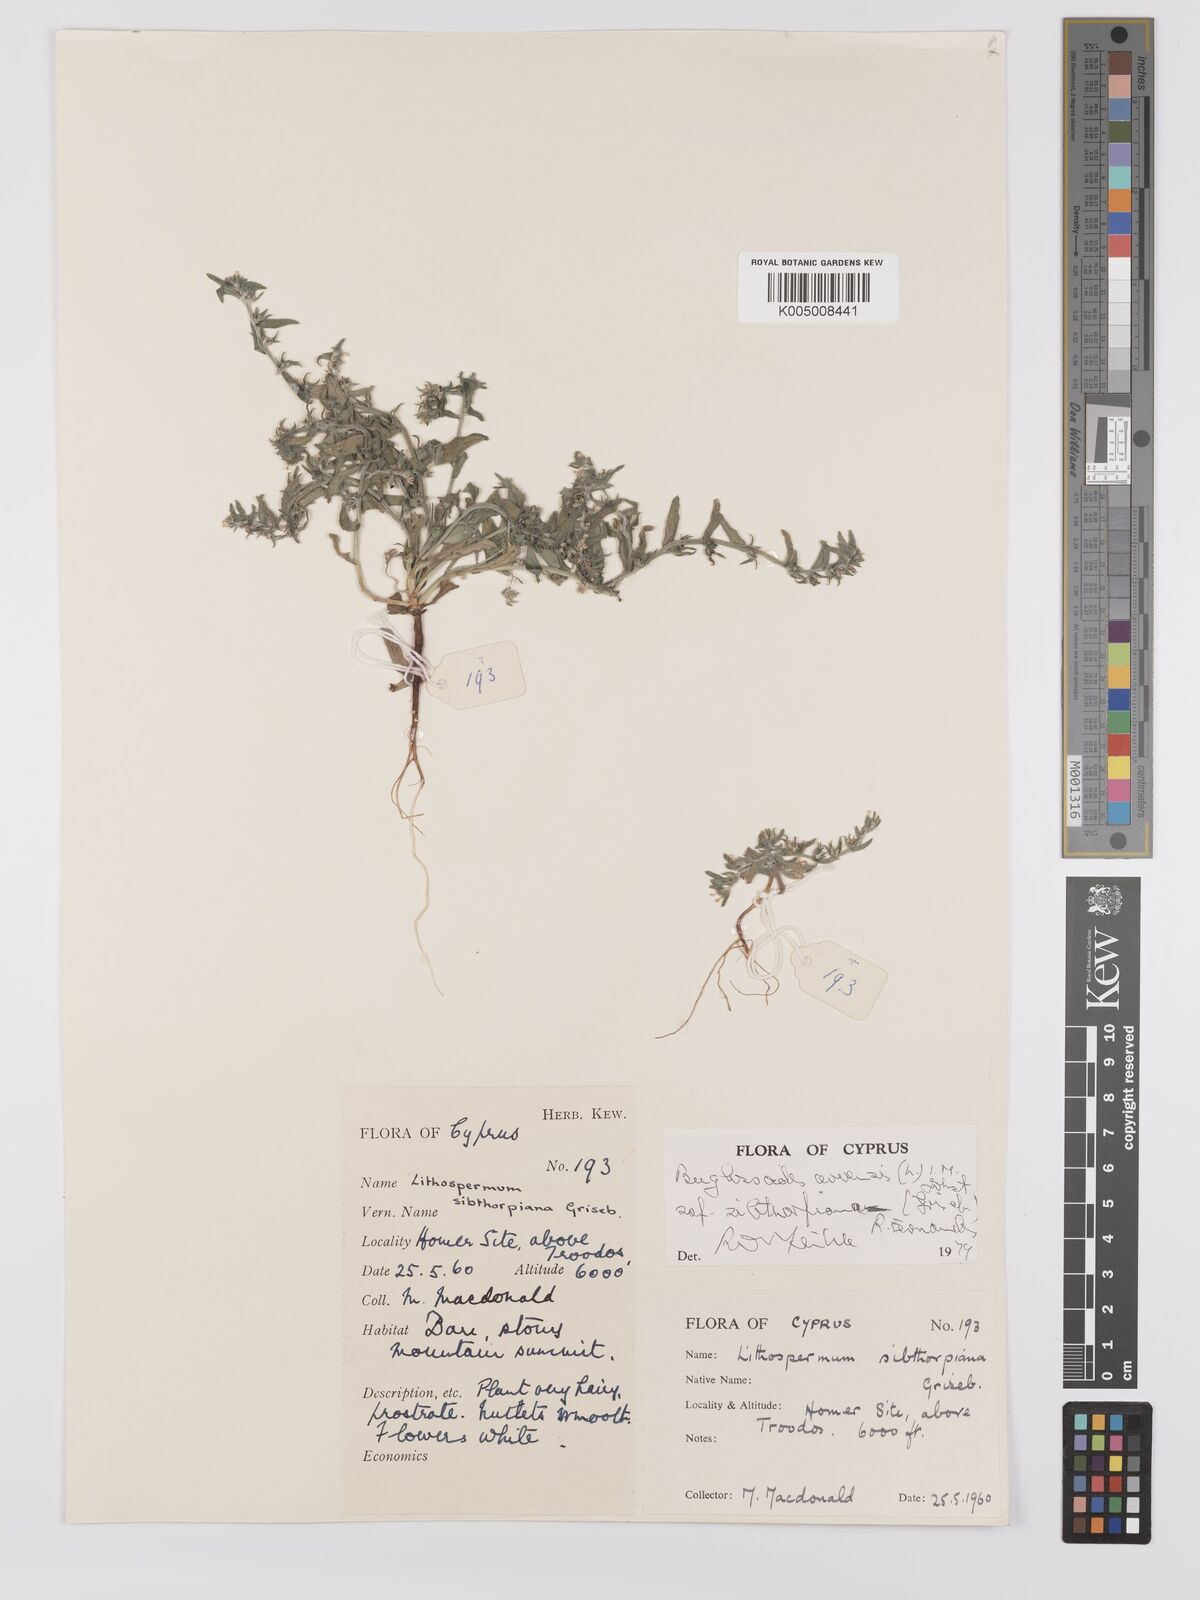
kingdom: Plantae
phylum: Tracheophyta
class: Magnoliopsida
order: Boraginales
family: Boraginaceae
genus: Buglossoides
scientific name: Buglossoides
